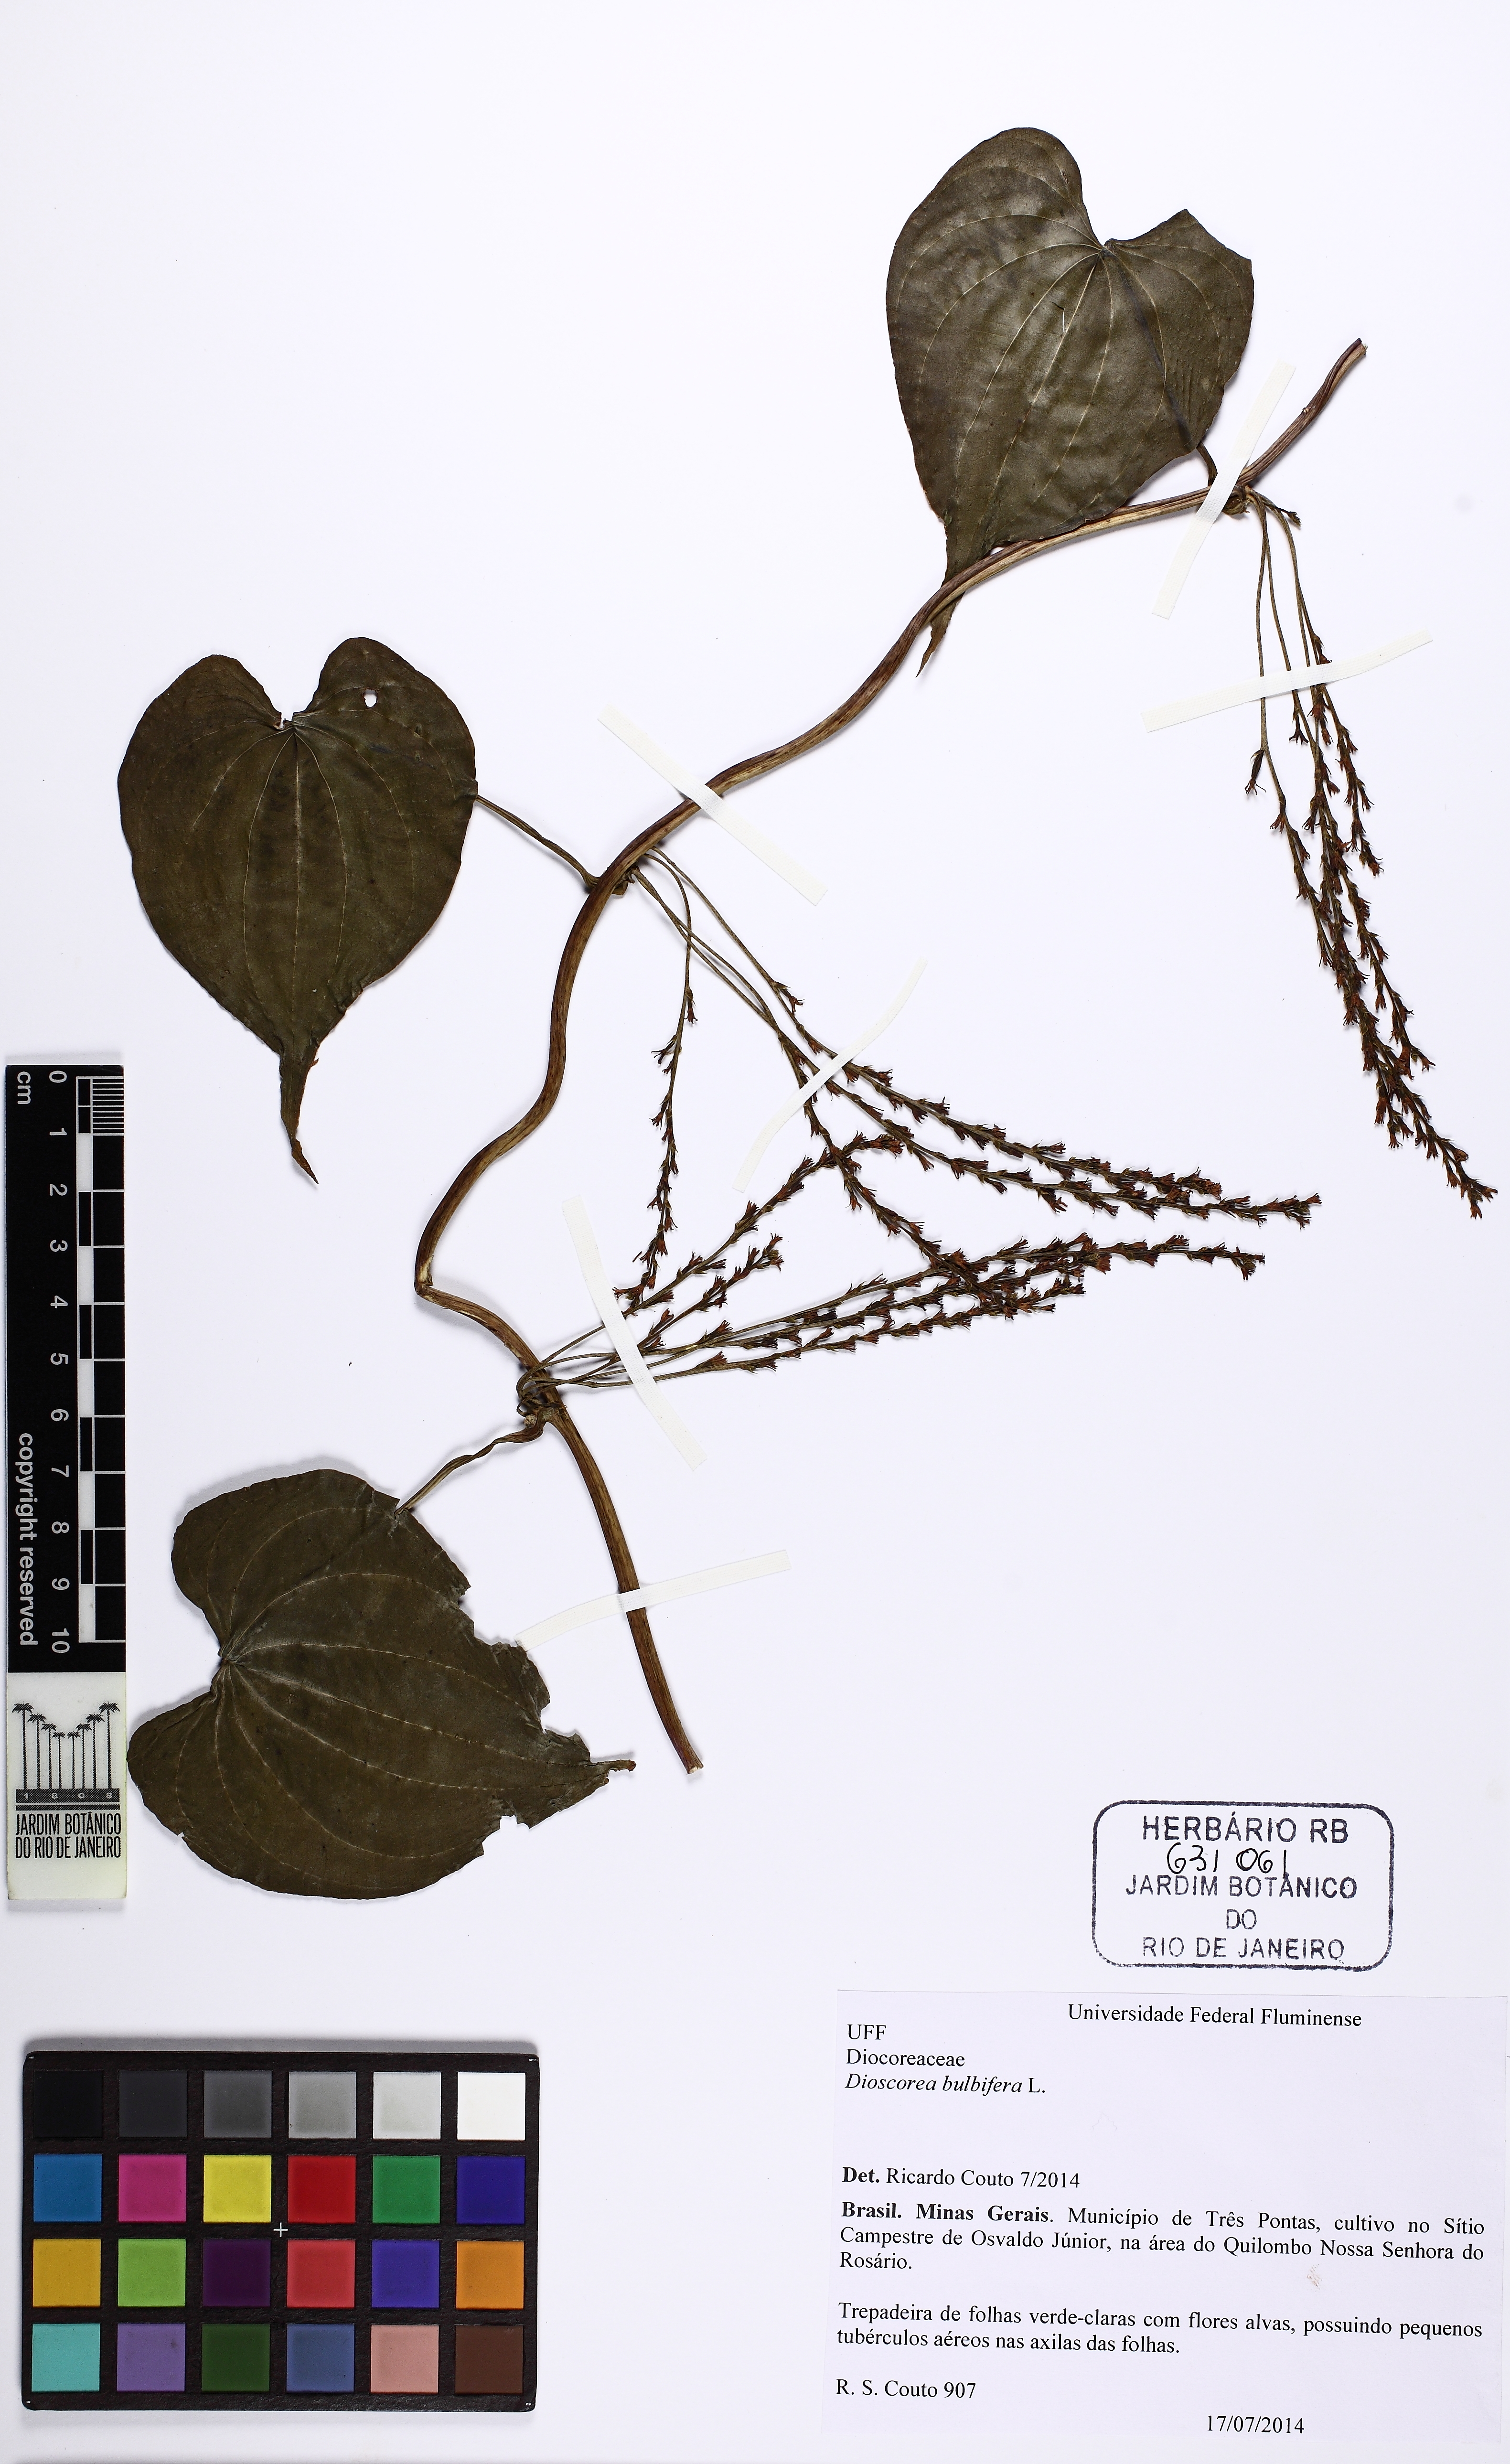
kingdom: Plantae
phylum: Tracheophyta
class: Liliopsida
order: Dioscoreales
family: Dioscoreaceae
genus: Dioscorea
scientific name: Dioscorea bulbifera
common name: Air yam
